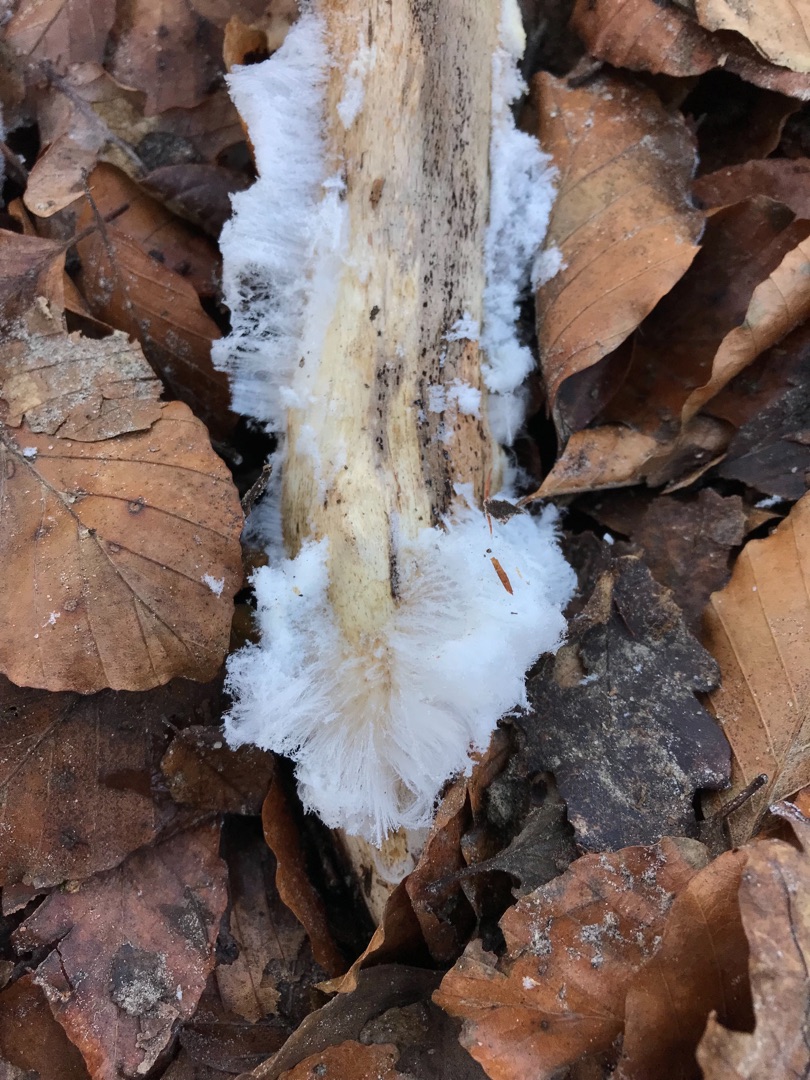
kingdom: Fungi
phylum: Basidiomycota
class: Tremellomycetes
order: Tremellales
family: Exidiaceae
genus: Exidiopsis
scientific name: Exidiopsis effusa
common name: Smuk bævrehinde
